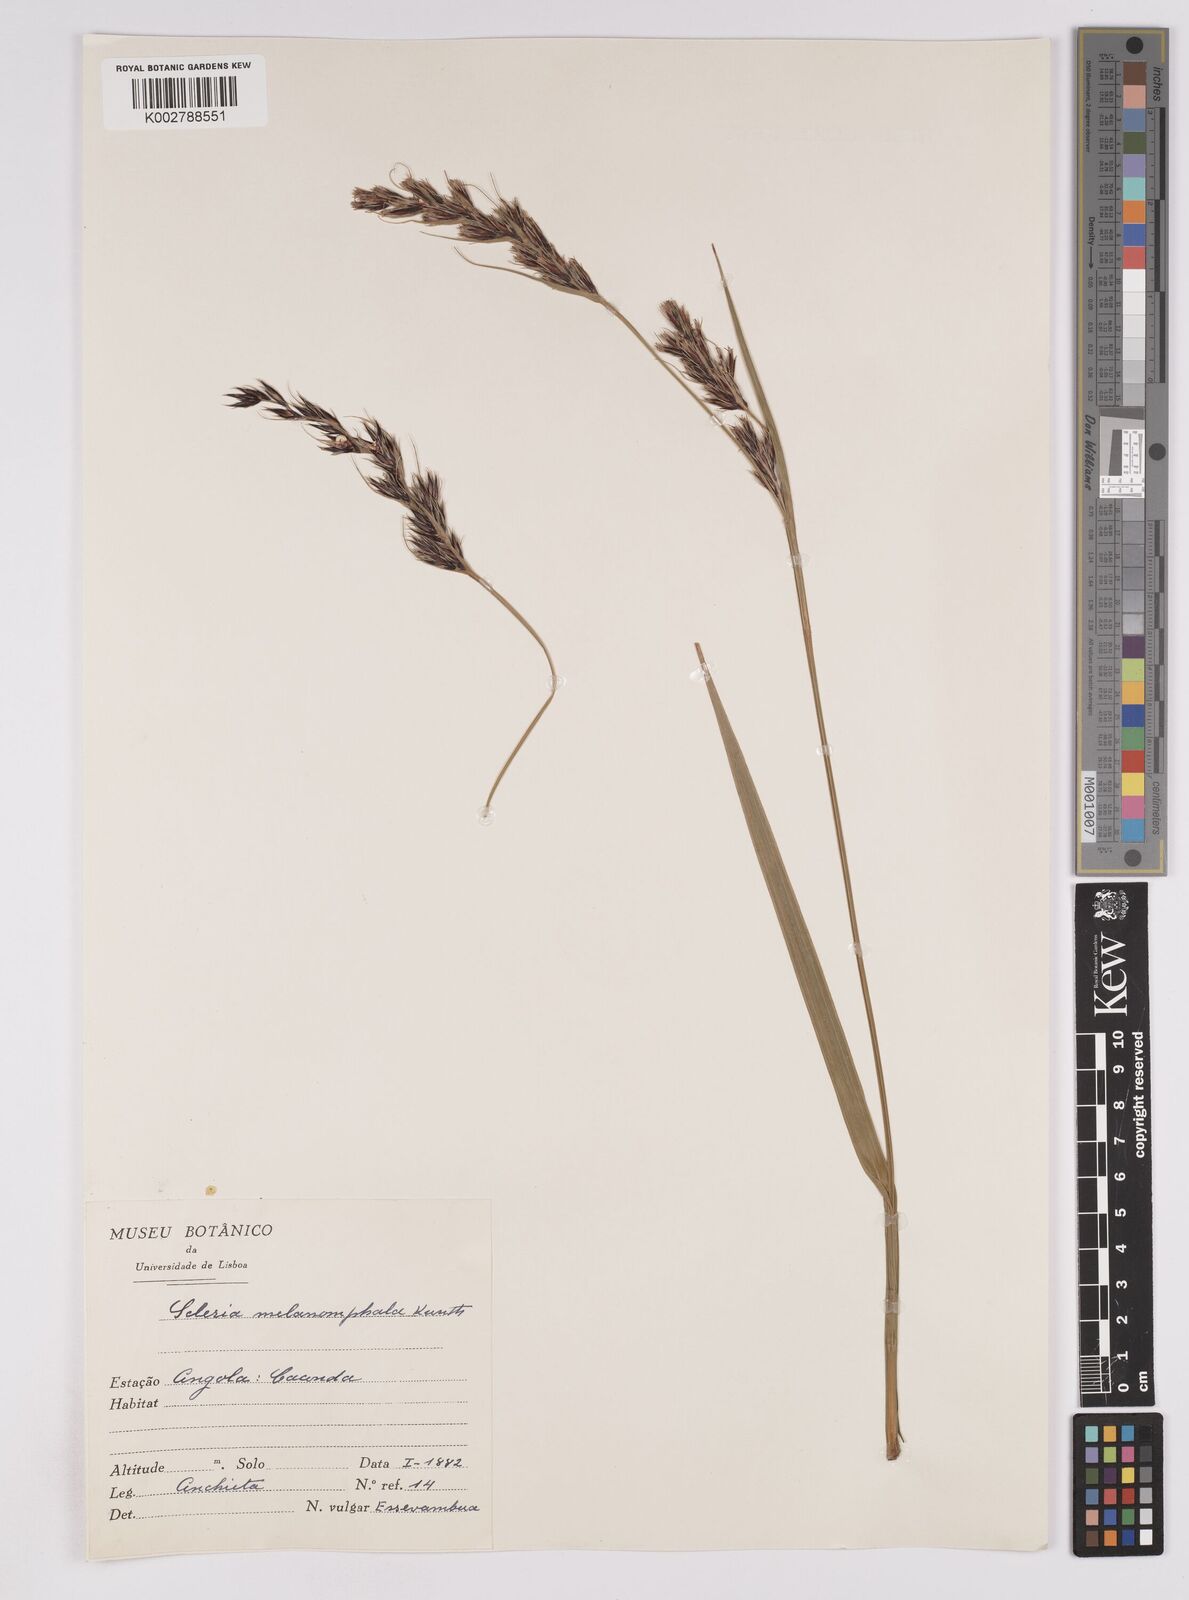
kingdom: Plantae
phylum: Tracheophyta
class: Liliopsida
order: Poales
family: Cyperaceae
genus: Scleria
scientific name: Scleria melanomphala
